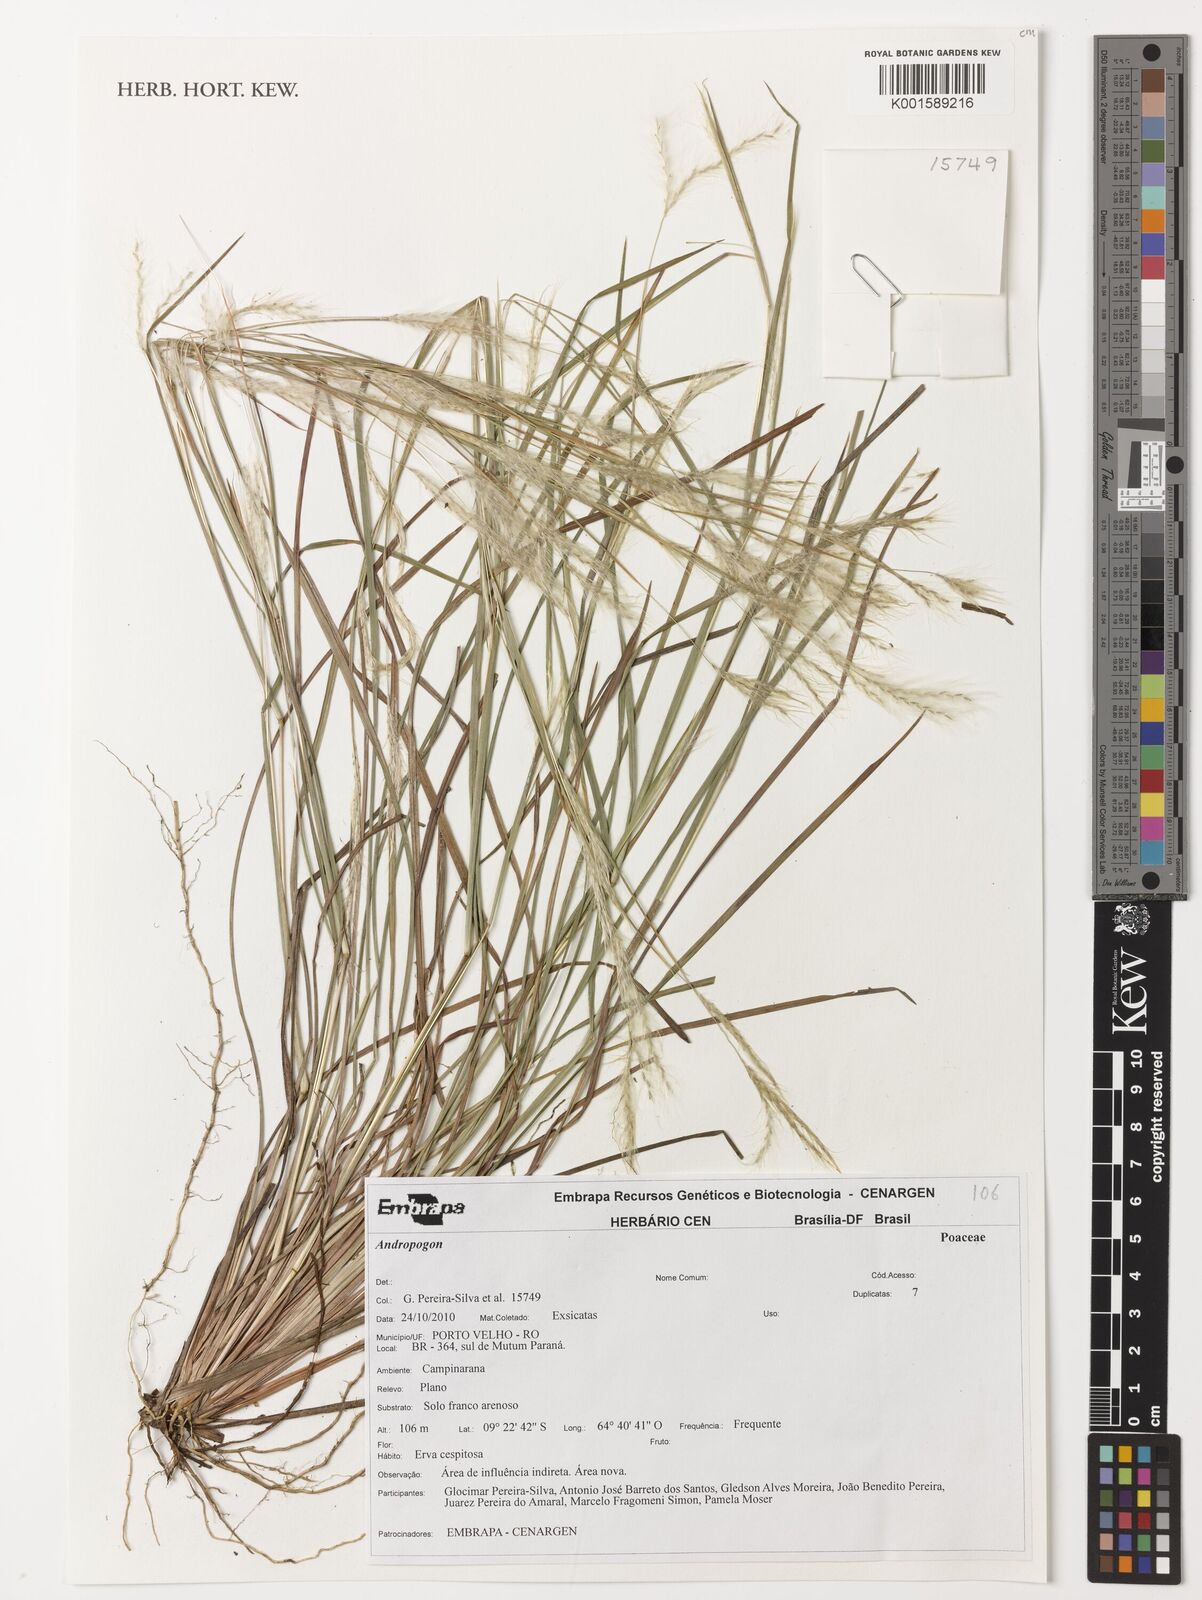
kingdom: Plantae
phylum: Tracheophyta
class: Liliopsida
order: Poales
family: Poaceae
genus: Andropogon
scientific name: Andropogon
